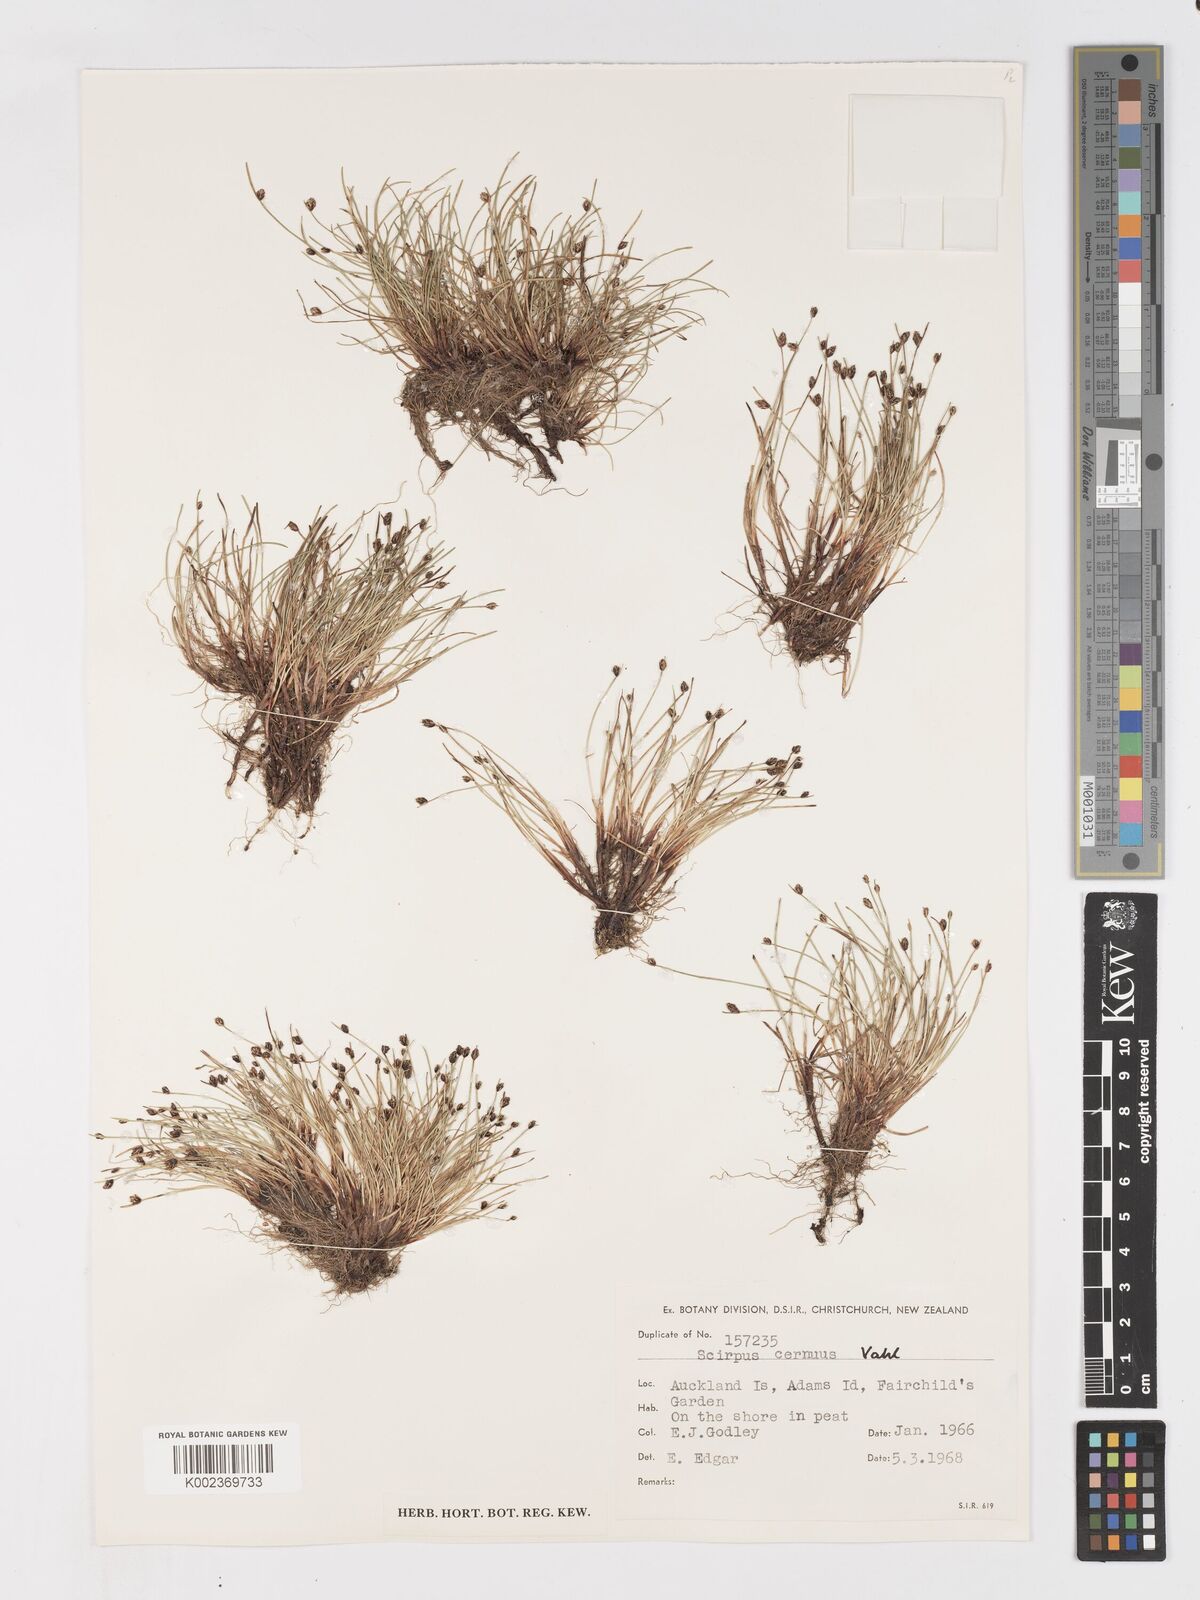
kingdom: Plantae
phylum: Tracheophyta
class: Liliopsida
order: Poales
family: Cyperaceae
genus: Isolepis
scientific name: Isolepis cernua
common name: Slender club-rush
